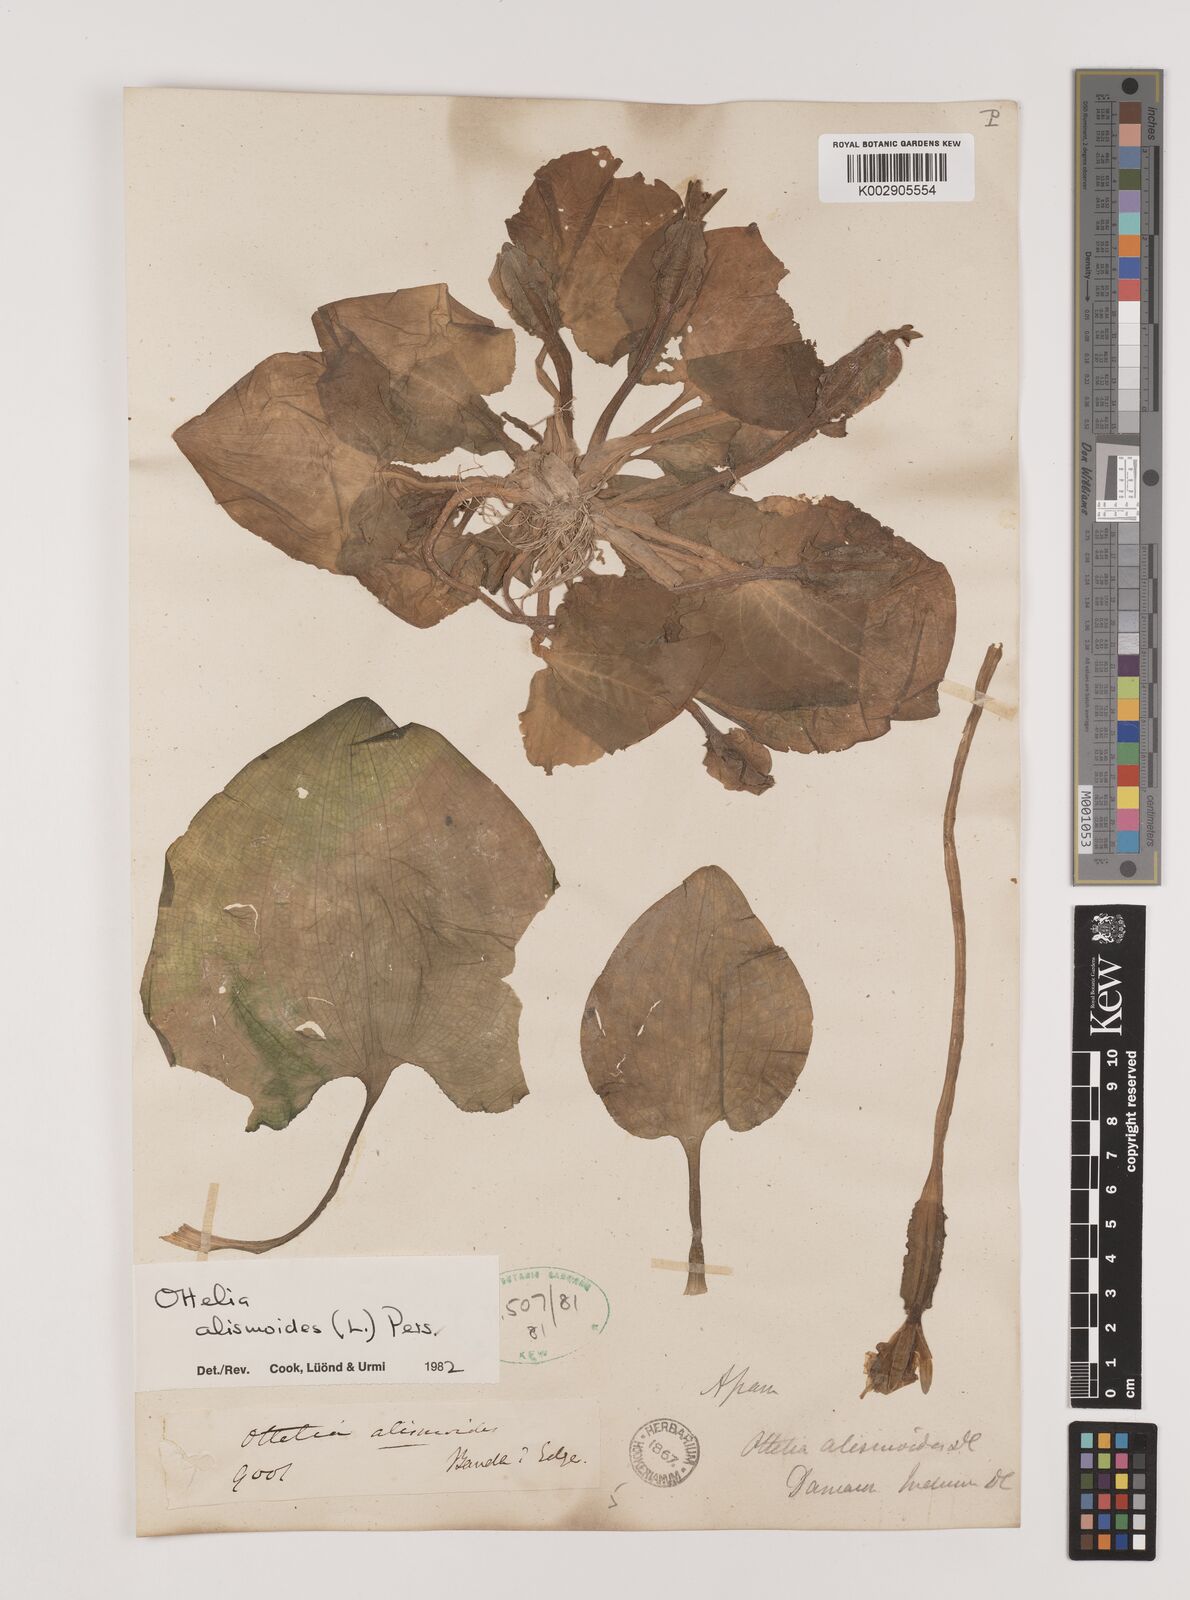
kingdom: Plantae
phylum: Tracheophyta
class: Liliopsida
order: Alismatales
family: Hydrocharitaceae
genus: Ottelia
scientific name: Ottelia alismoides
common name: Duck-lettuce
